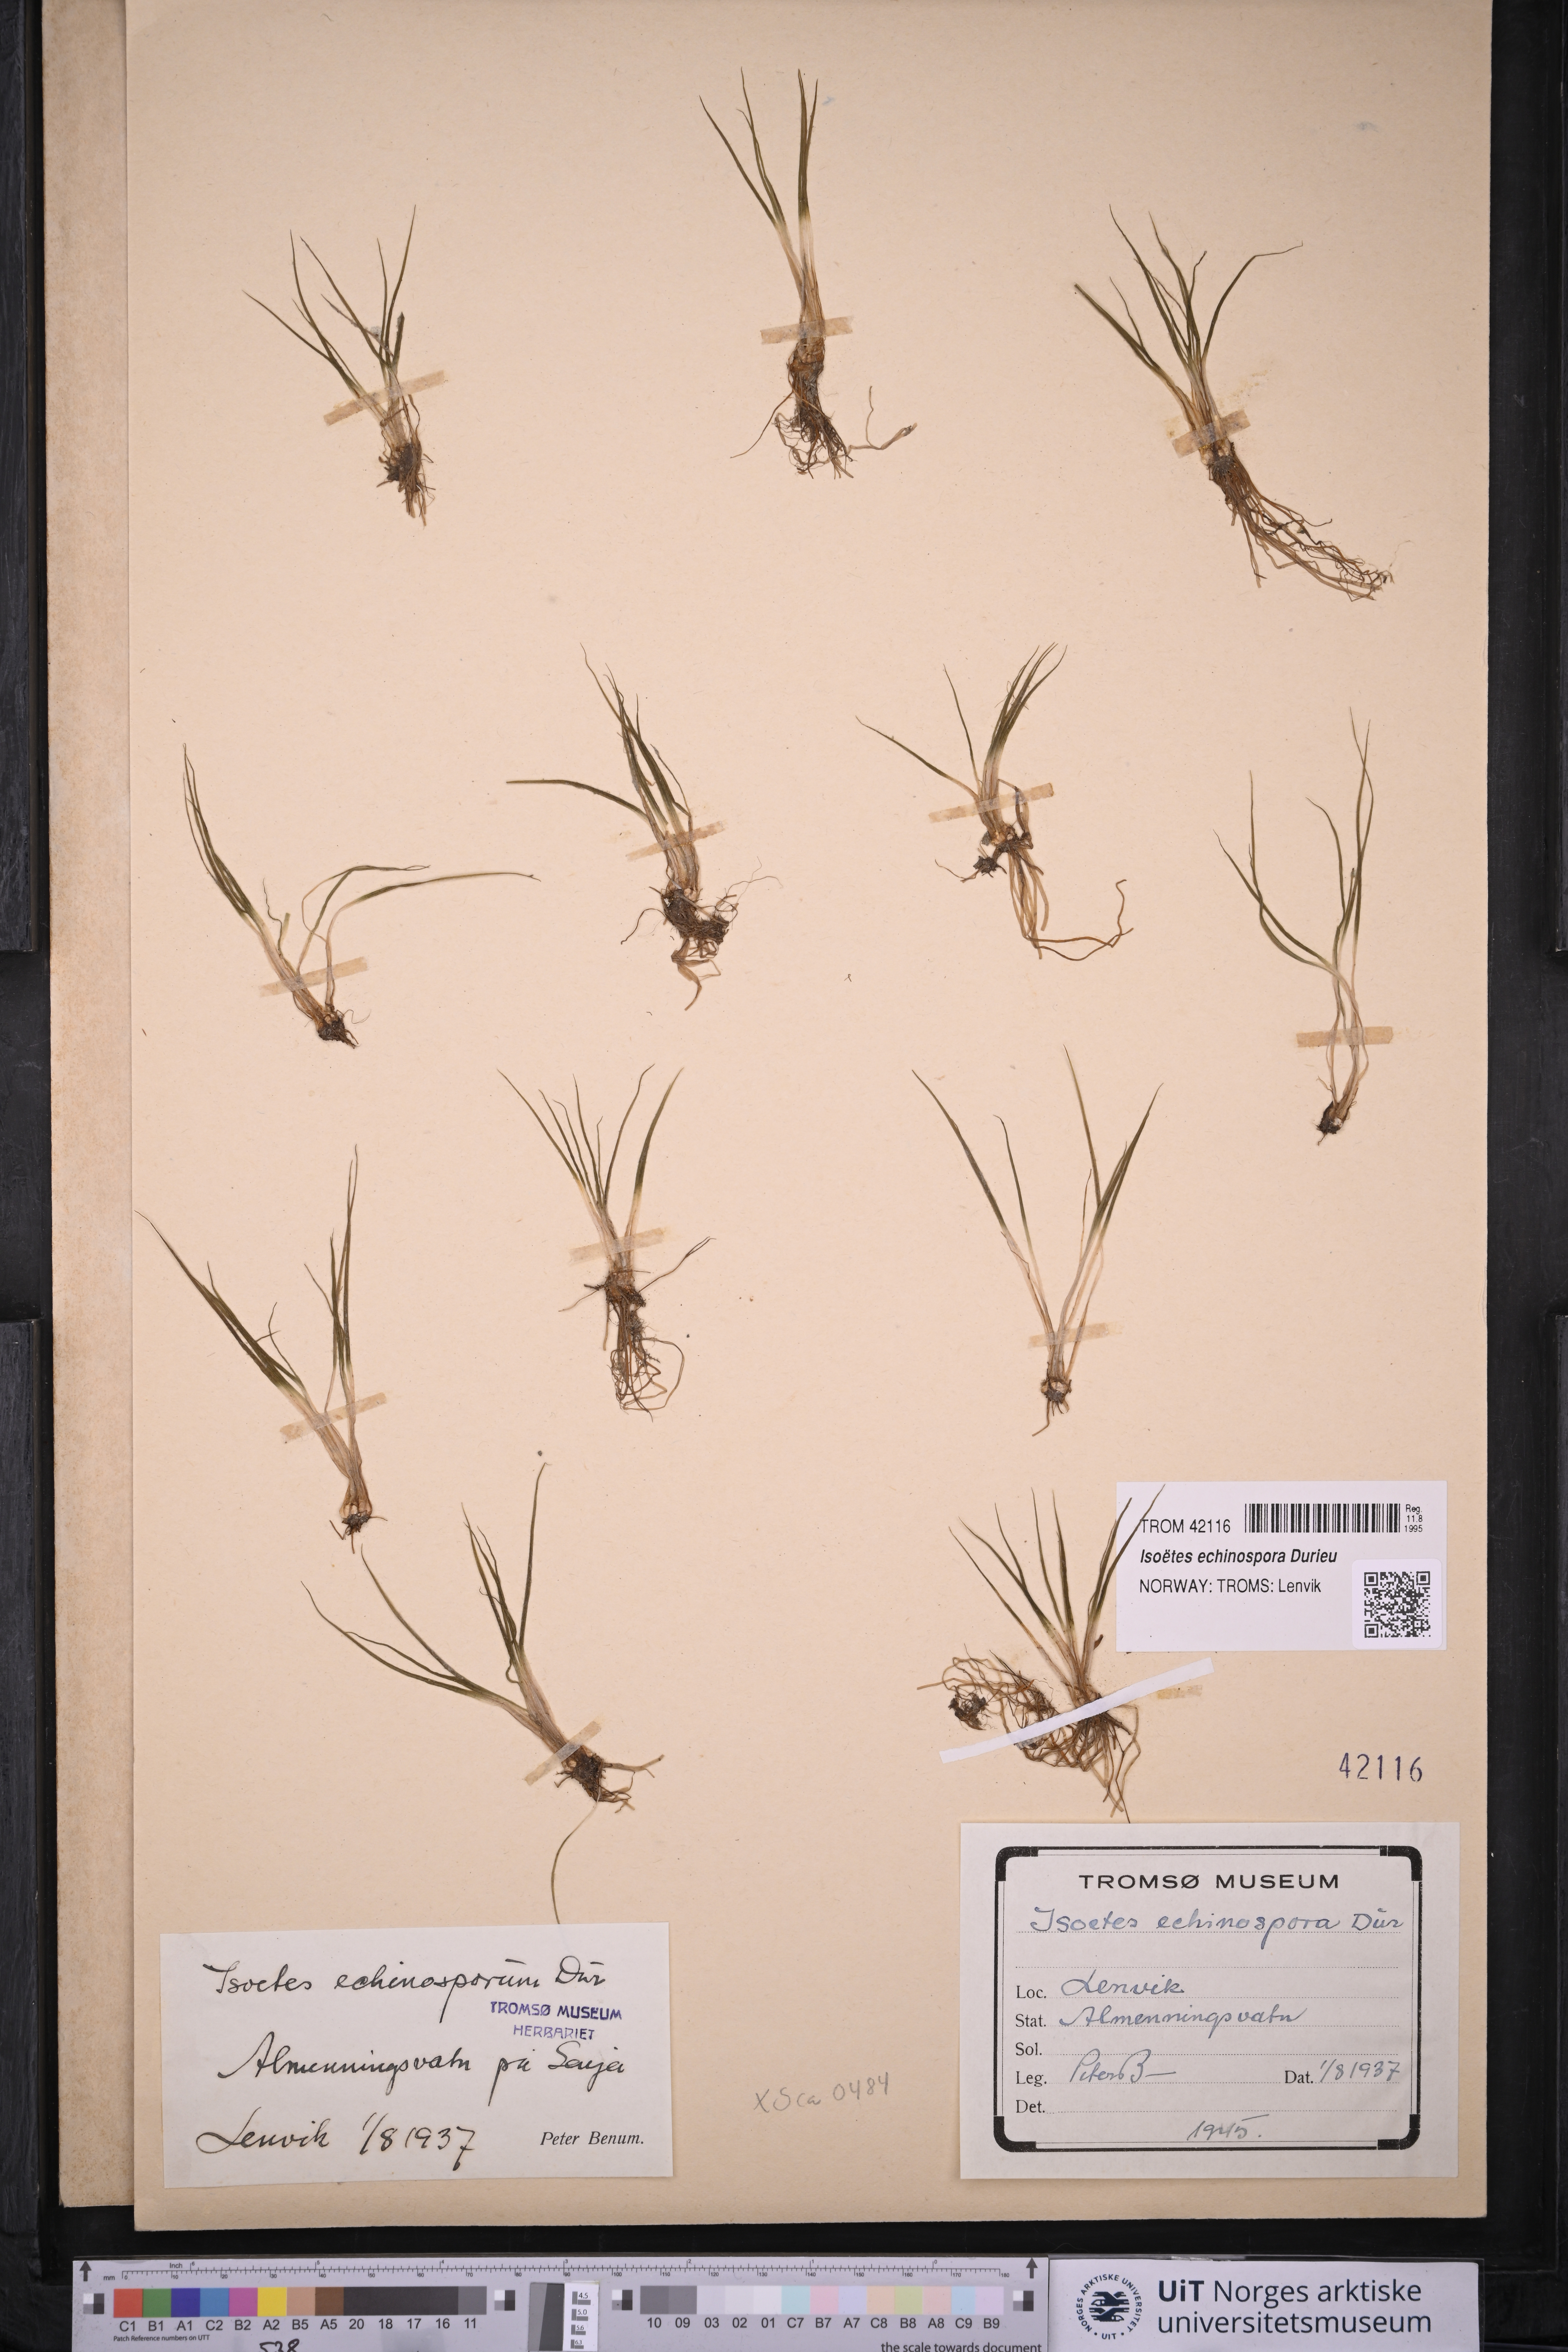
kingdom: Plantae
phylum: Tracheophyta
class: Lycopodiopsida
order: Isoetales
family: Isoetaceae
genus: Isoetes
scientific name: Isoetes echinospora
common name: Spring quillwort
